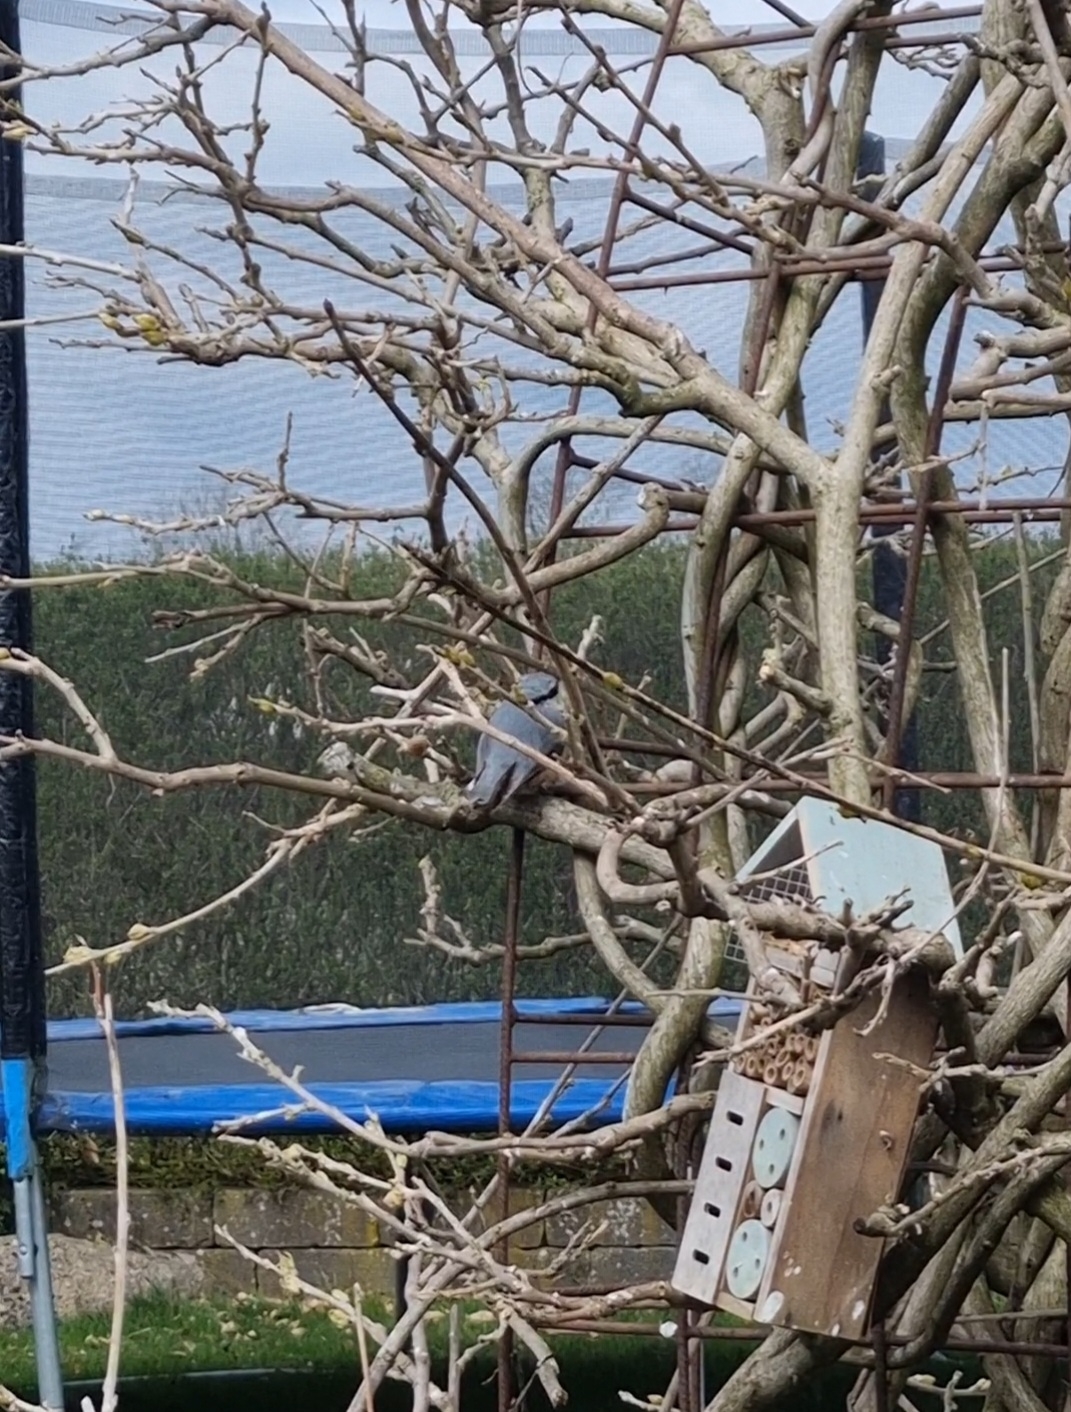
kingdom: Animalia
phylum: Chordata
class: Aves
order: Passeriformes
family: Sittidae
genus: Sitta
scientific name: Sitta europaea
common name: Spætmejse
